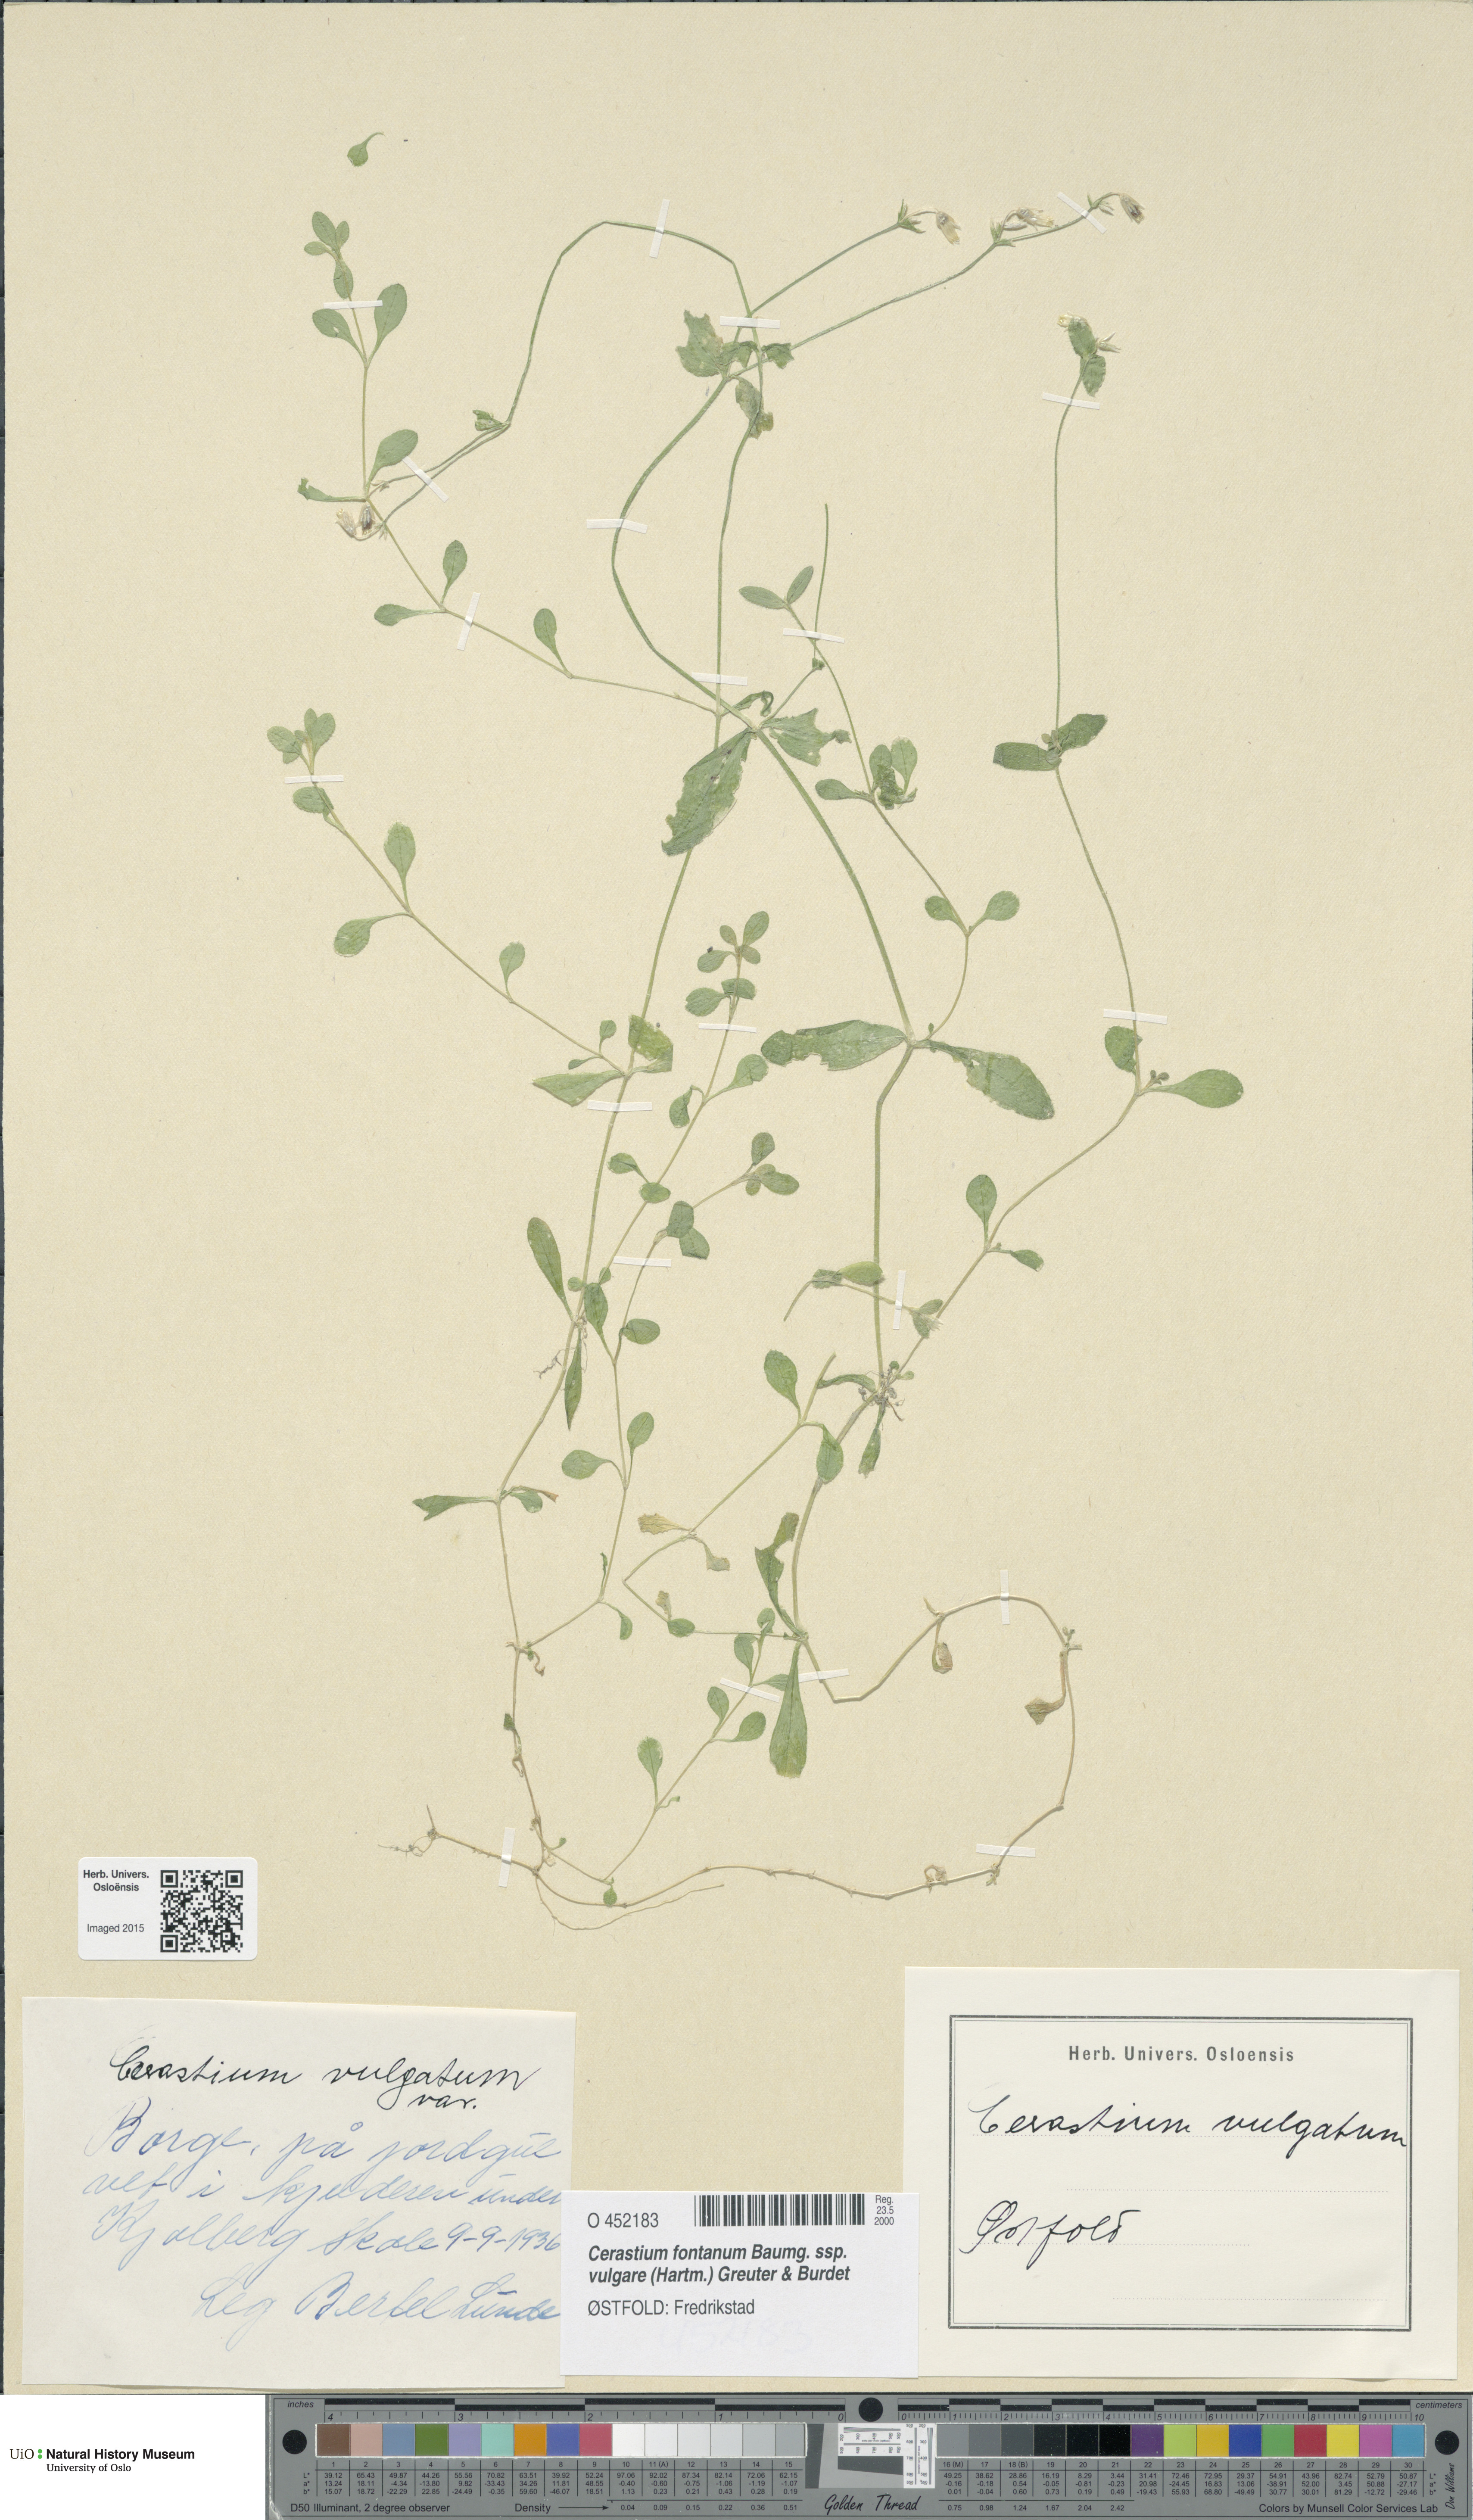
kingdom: Plantae
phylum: Tracheophyta
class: Magnoliopsida
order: Caryophyllales
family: Caryophyllaceae
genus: Cerastium
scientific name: Cerastium holosteoides
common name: Big chickweed
